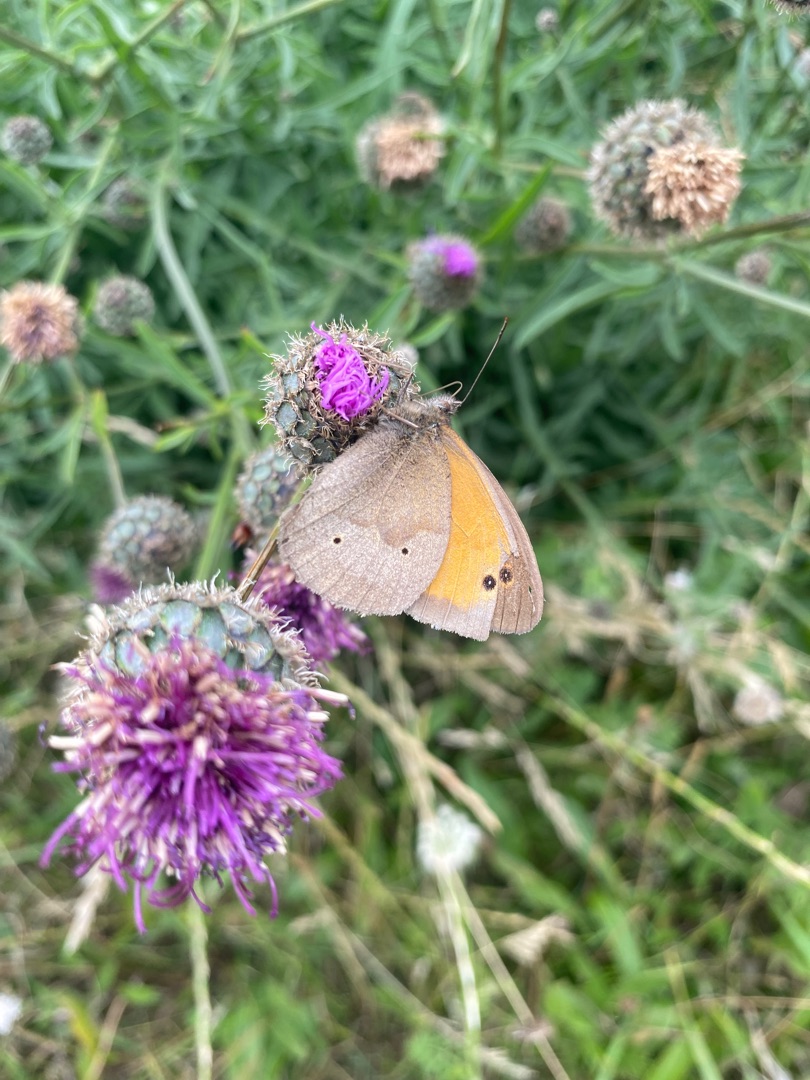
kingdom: Animalia
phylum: Arthropoda
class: Insecta
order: Lepidoptera
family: Nymphalidae
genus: Maniola
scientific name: Maniola jurtina
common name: Græsrandøje
